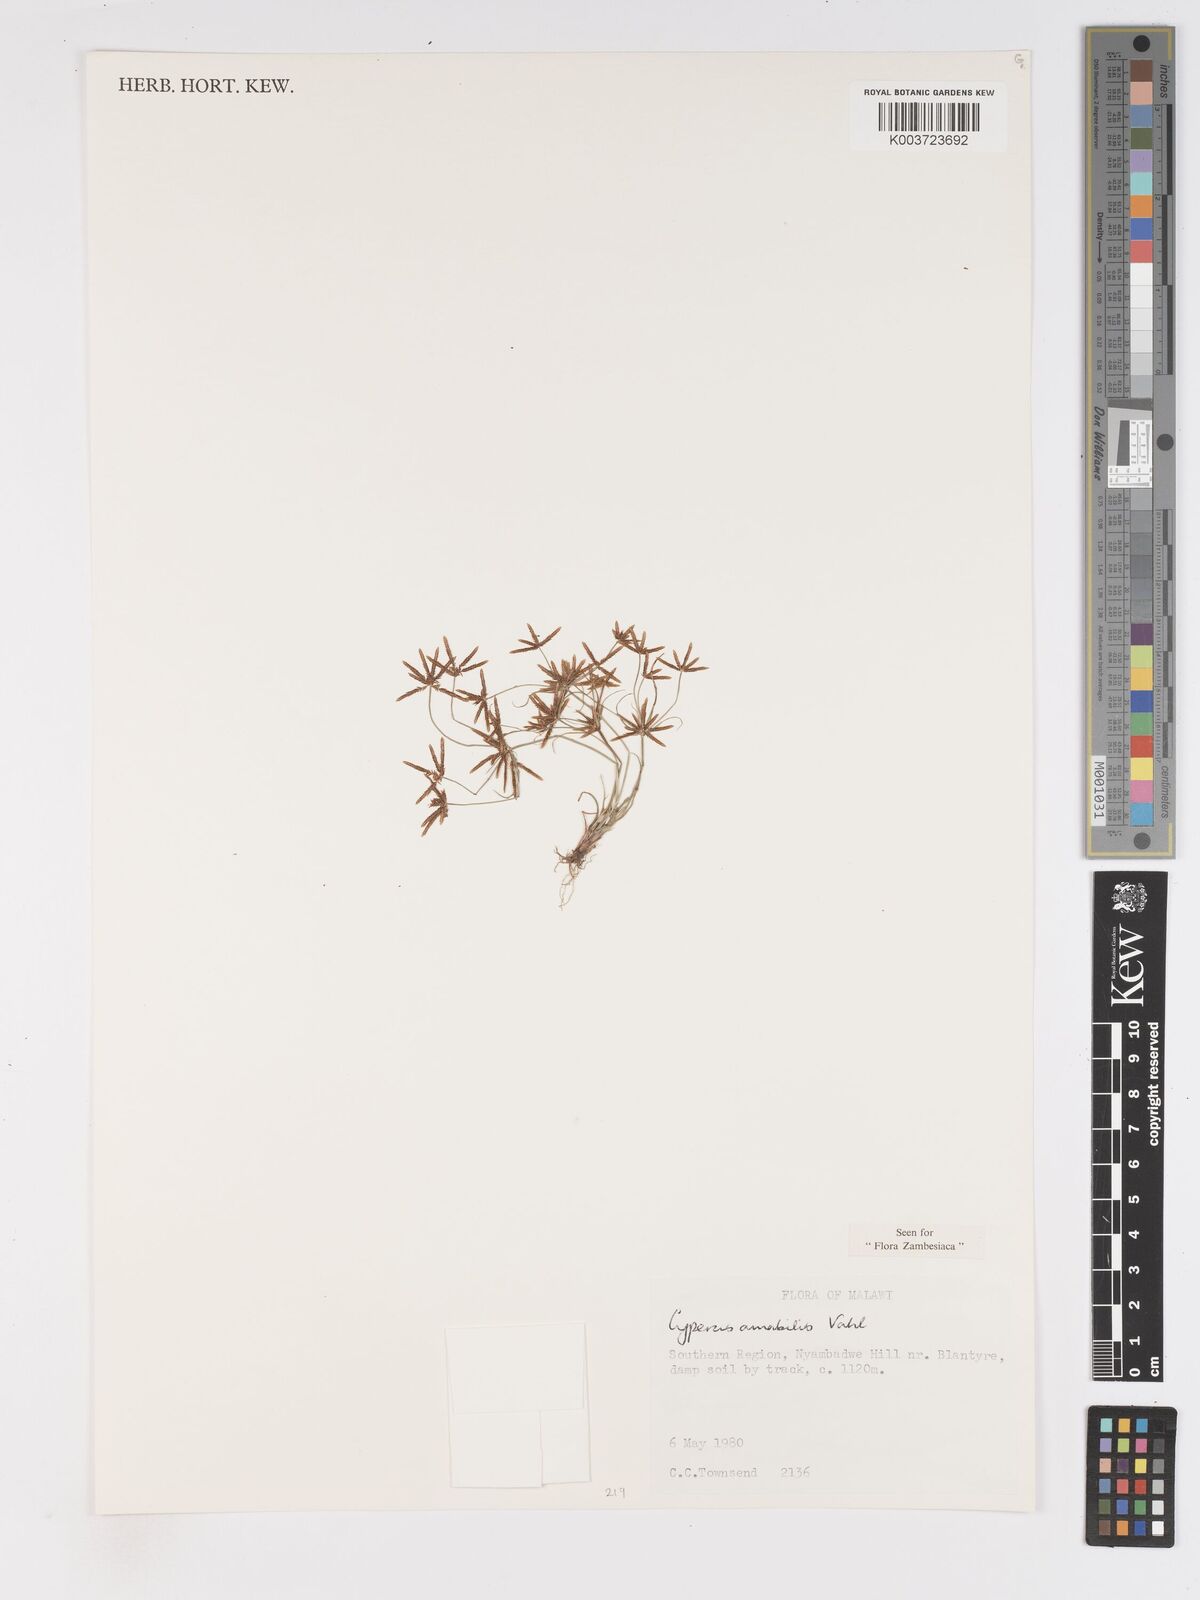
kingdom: Plantae
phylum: Tracheophyta
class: Liliopsida
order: Poales
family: Cyperaceae
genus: Cyperus
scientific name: Cyperus amabilis
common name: Foothill flat sedge
